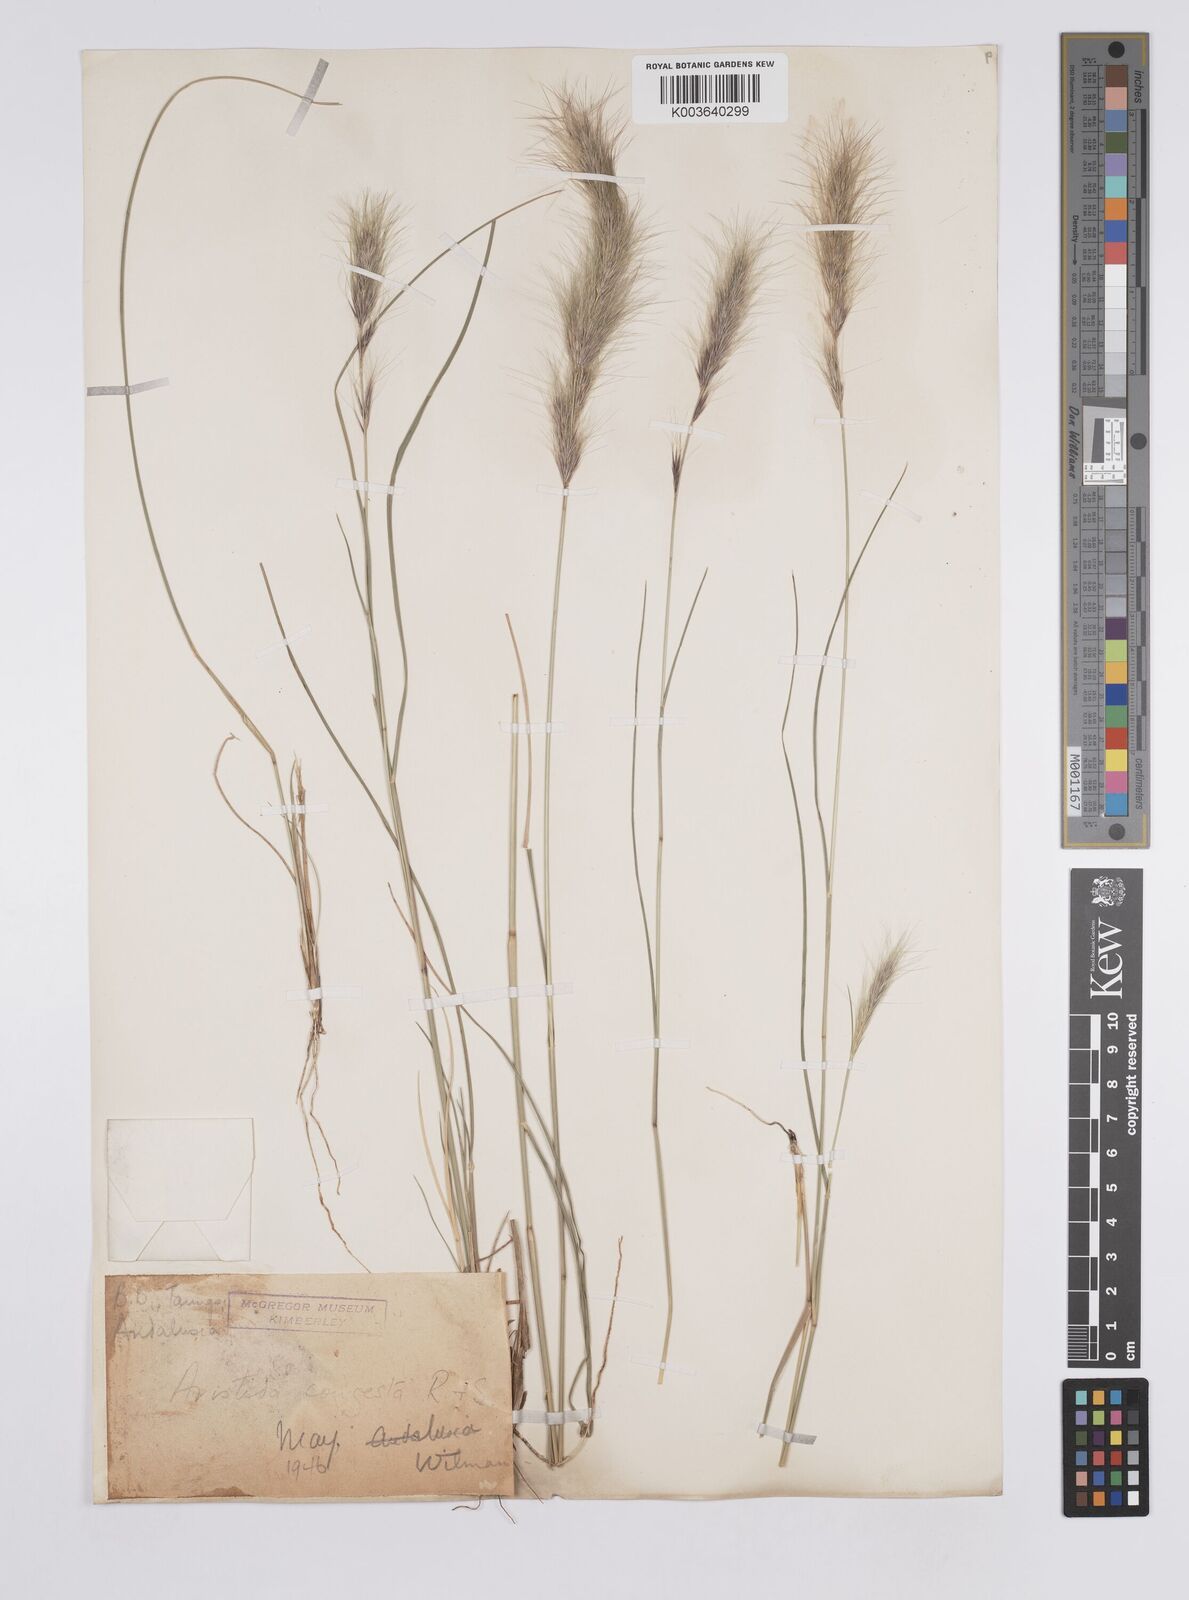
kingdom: Plantae
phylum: Tracheophyta
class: Liliopsida
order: Poales
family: Poaceae
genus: Aristida
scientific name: Aristida congesta
